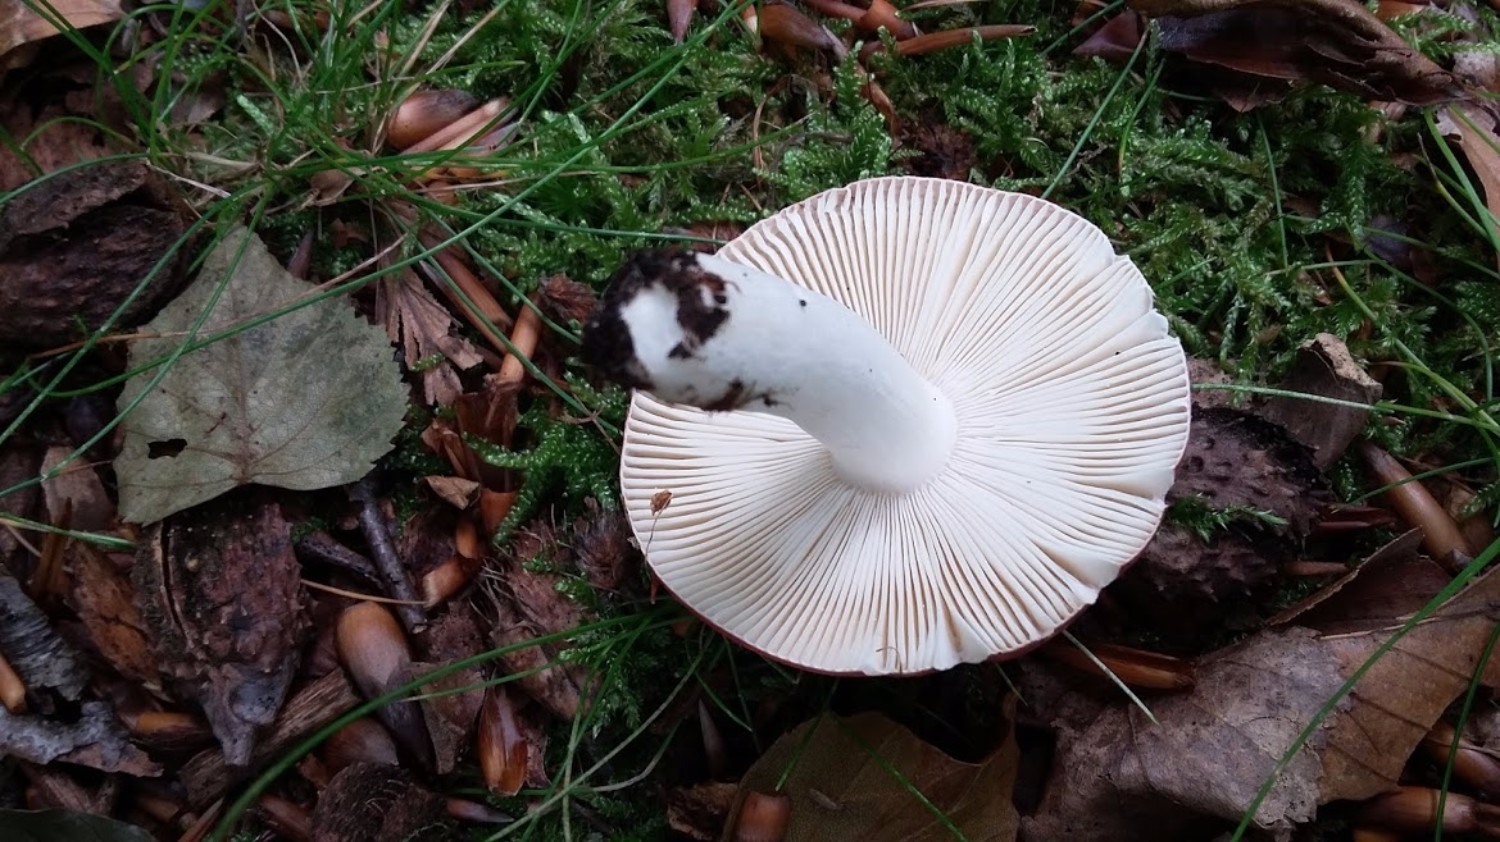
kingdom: Fungi
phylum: Basidiomycota
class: Agaricomycetes
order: Russulales
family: Russulaceae
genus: Russula
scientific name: Russula
